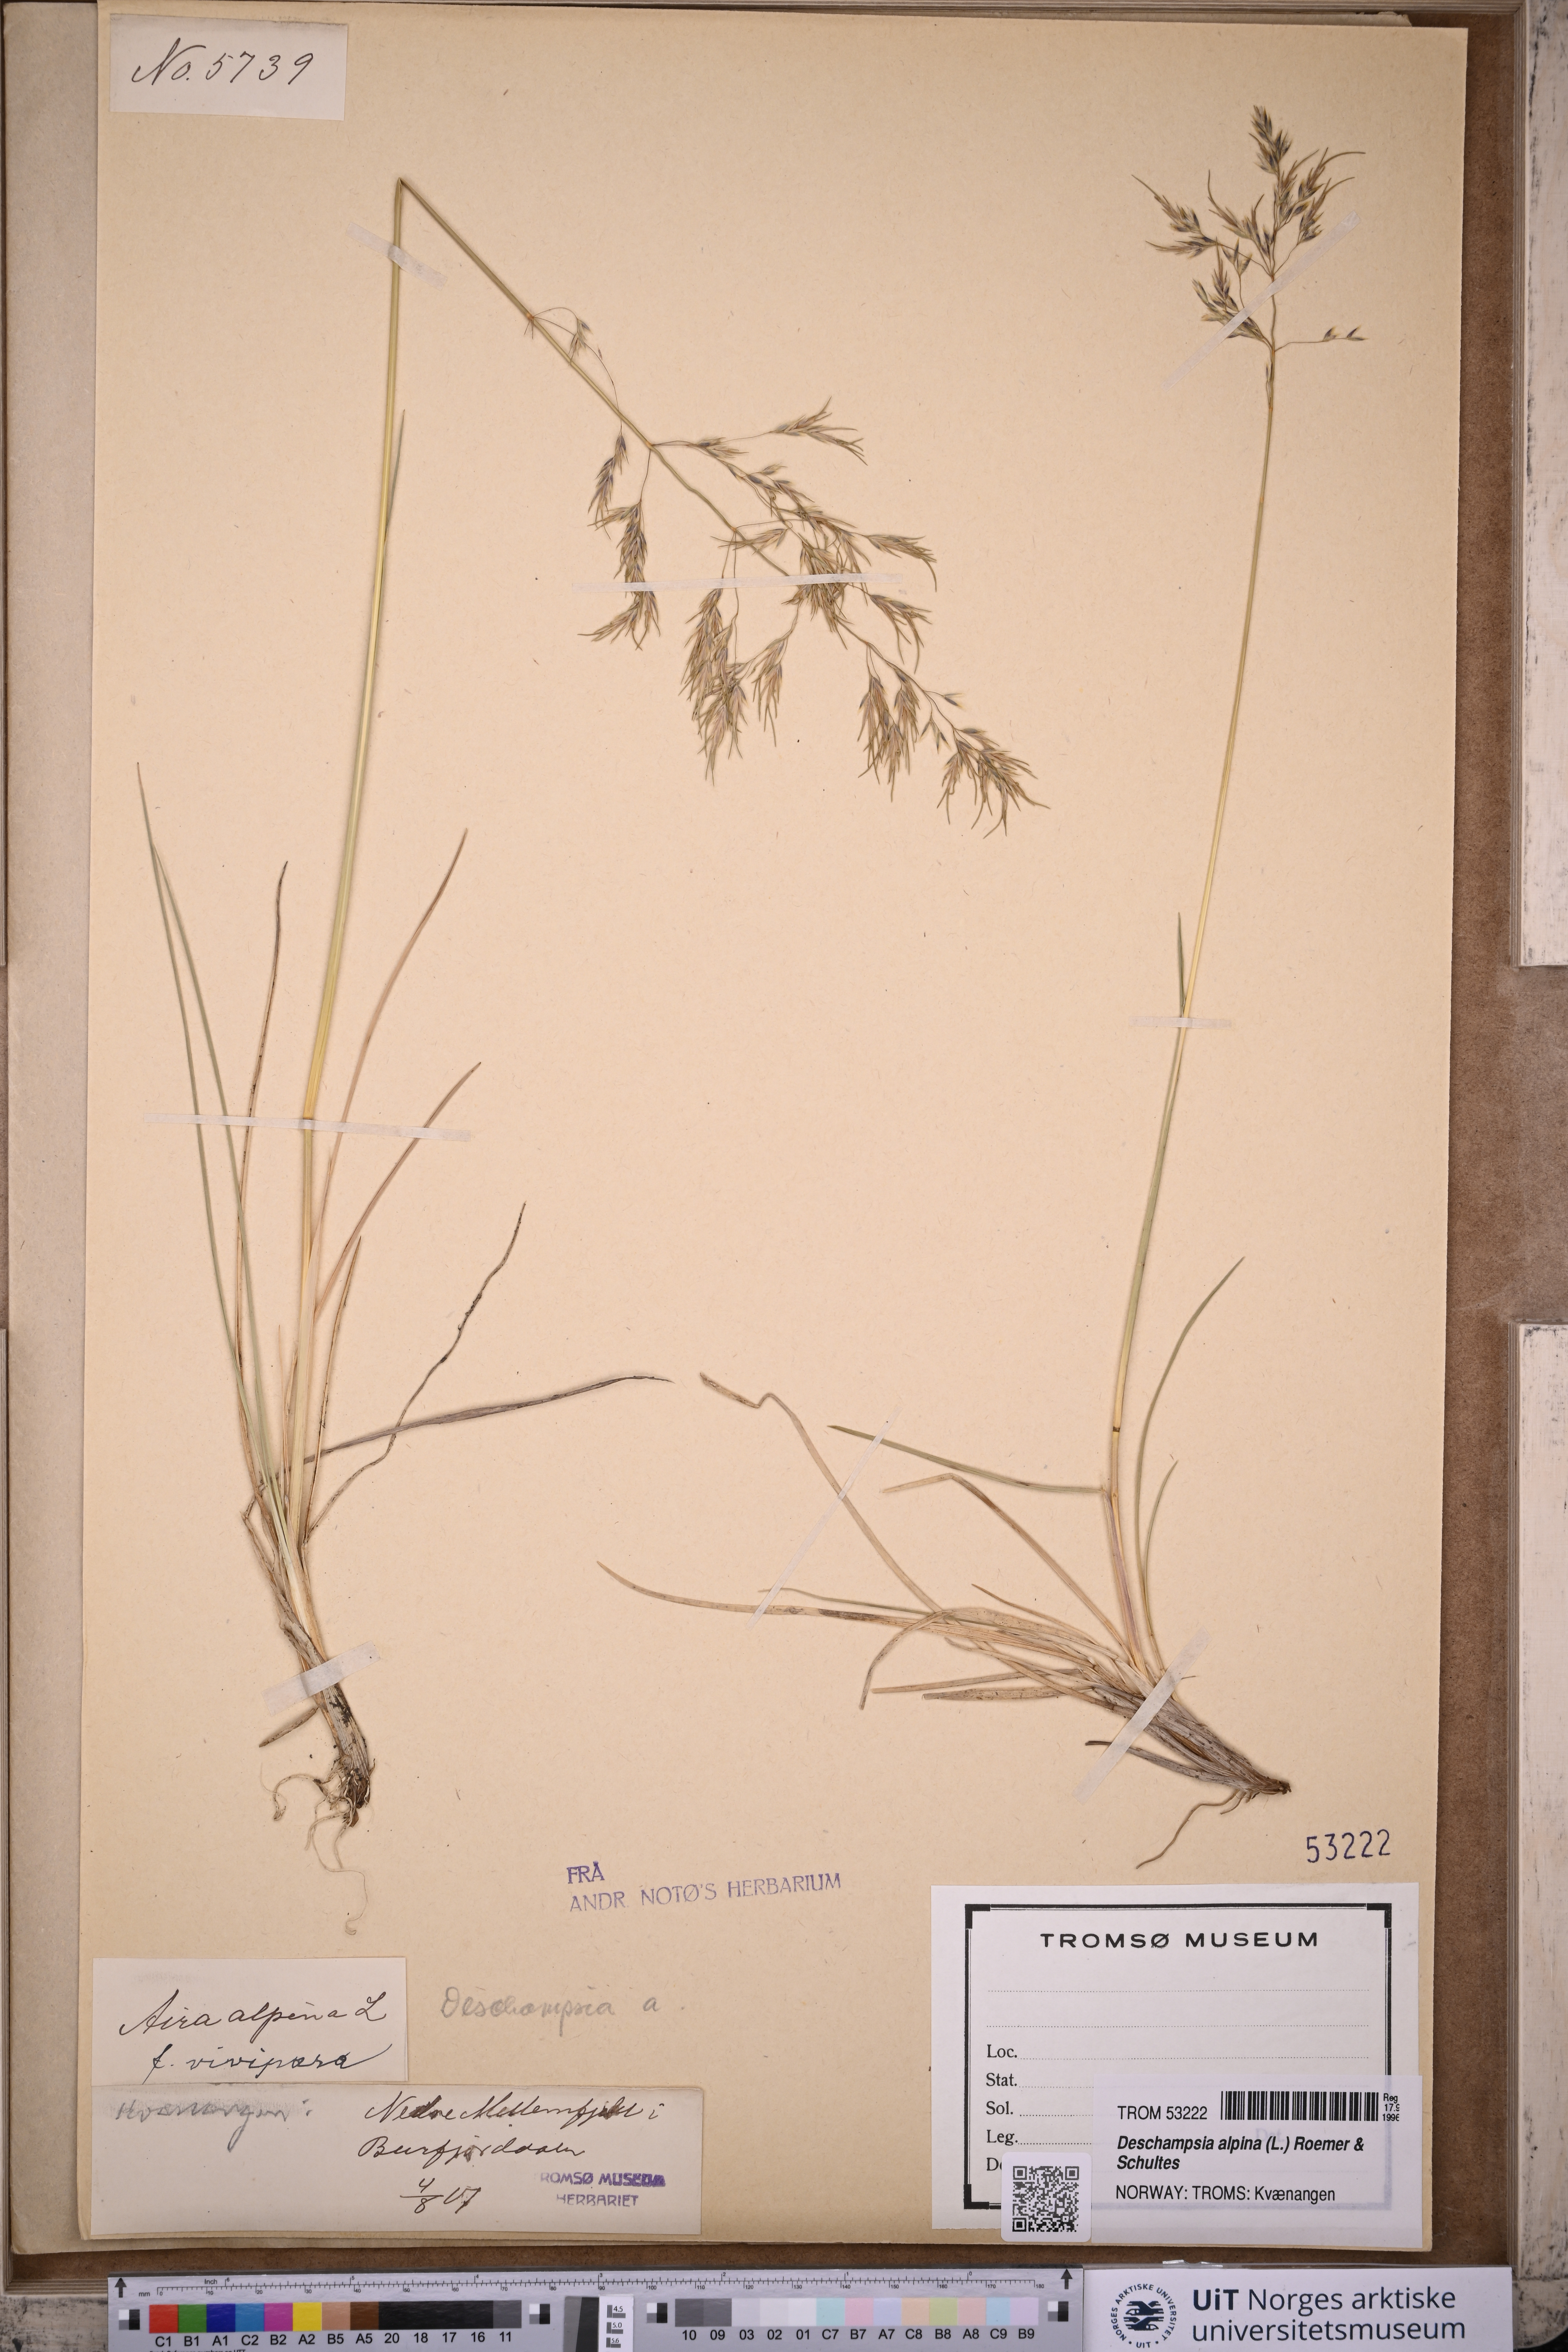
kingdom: Plantae
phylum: Tracheophyta
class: Liliopsida
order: Poales
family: Poaceae
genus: Deschampsia
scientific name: Deschampsia cespitosa
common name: Tufted hair-grass
